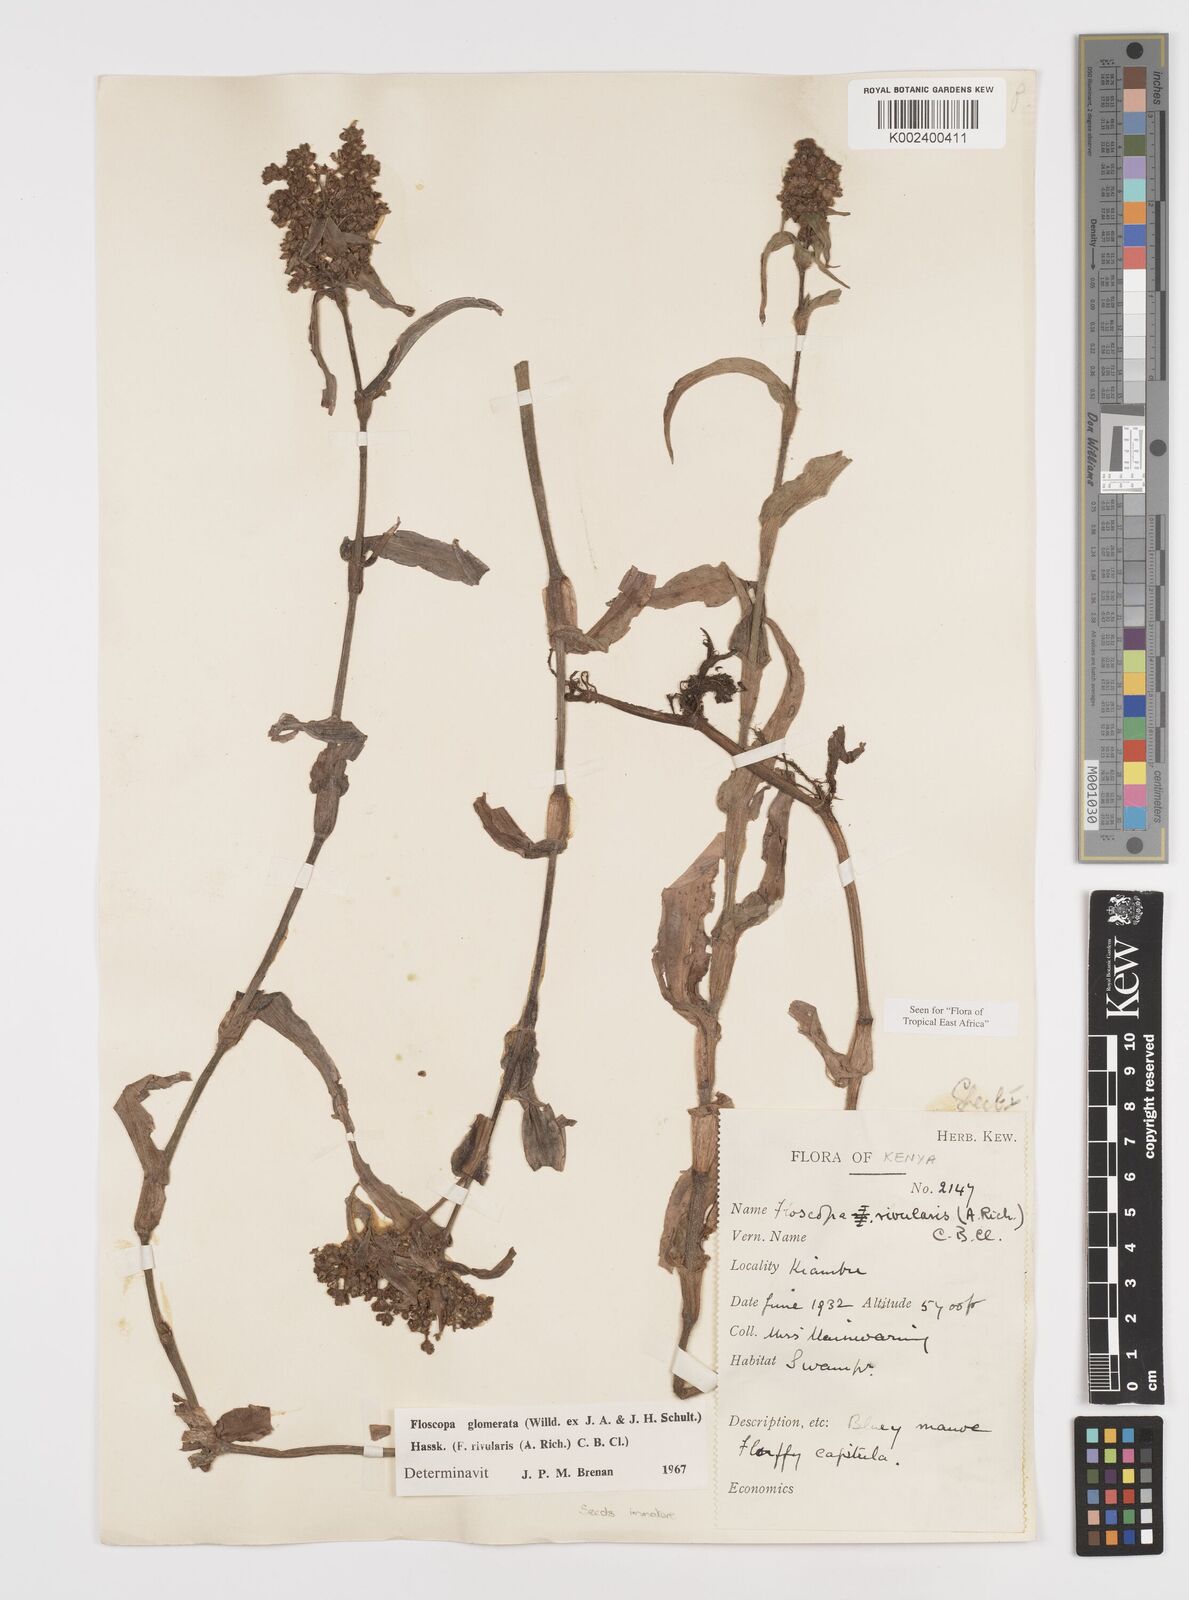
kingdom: Plantae
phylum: Tracheophyta
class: Liliopsida
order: Commelinales
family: Commelinaceae
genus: Floscopa
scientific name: Floscopa glomerata
